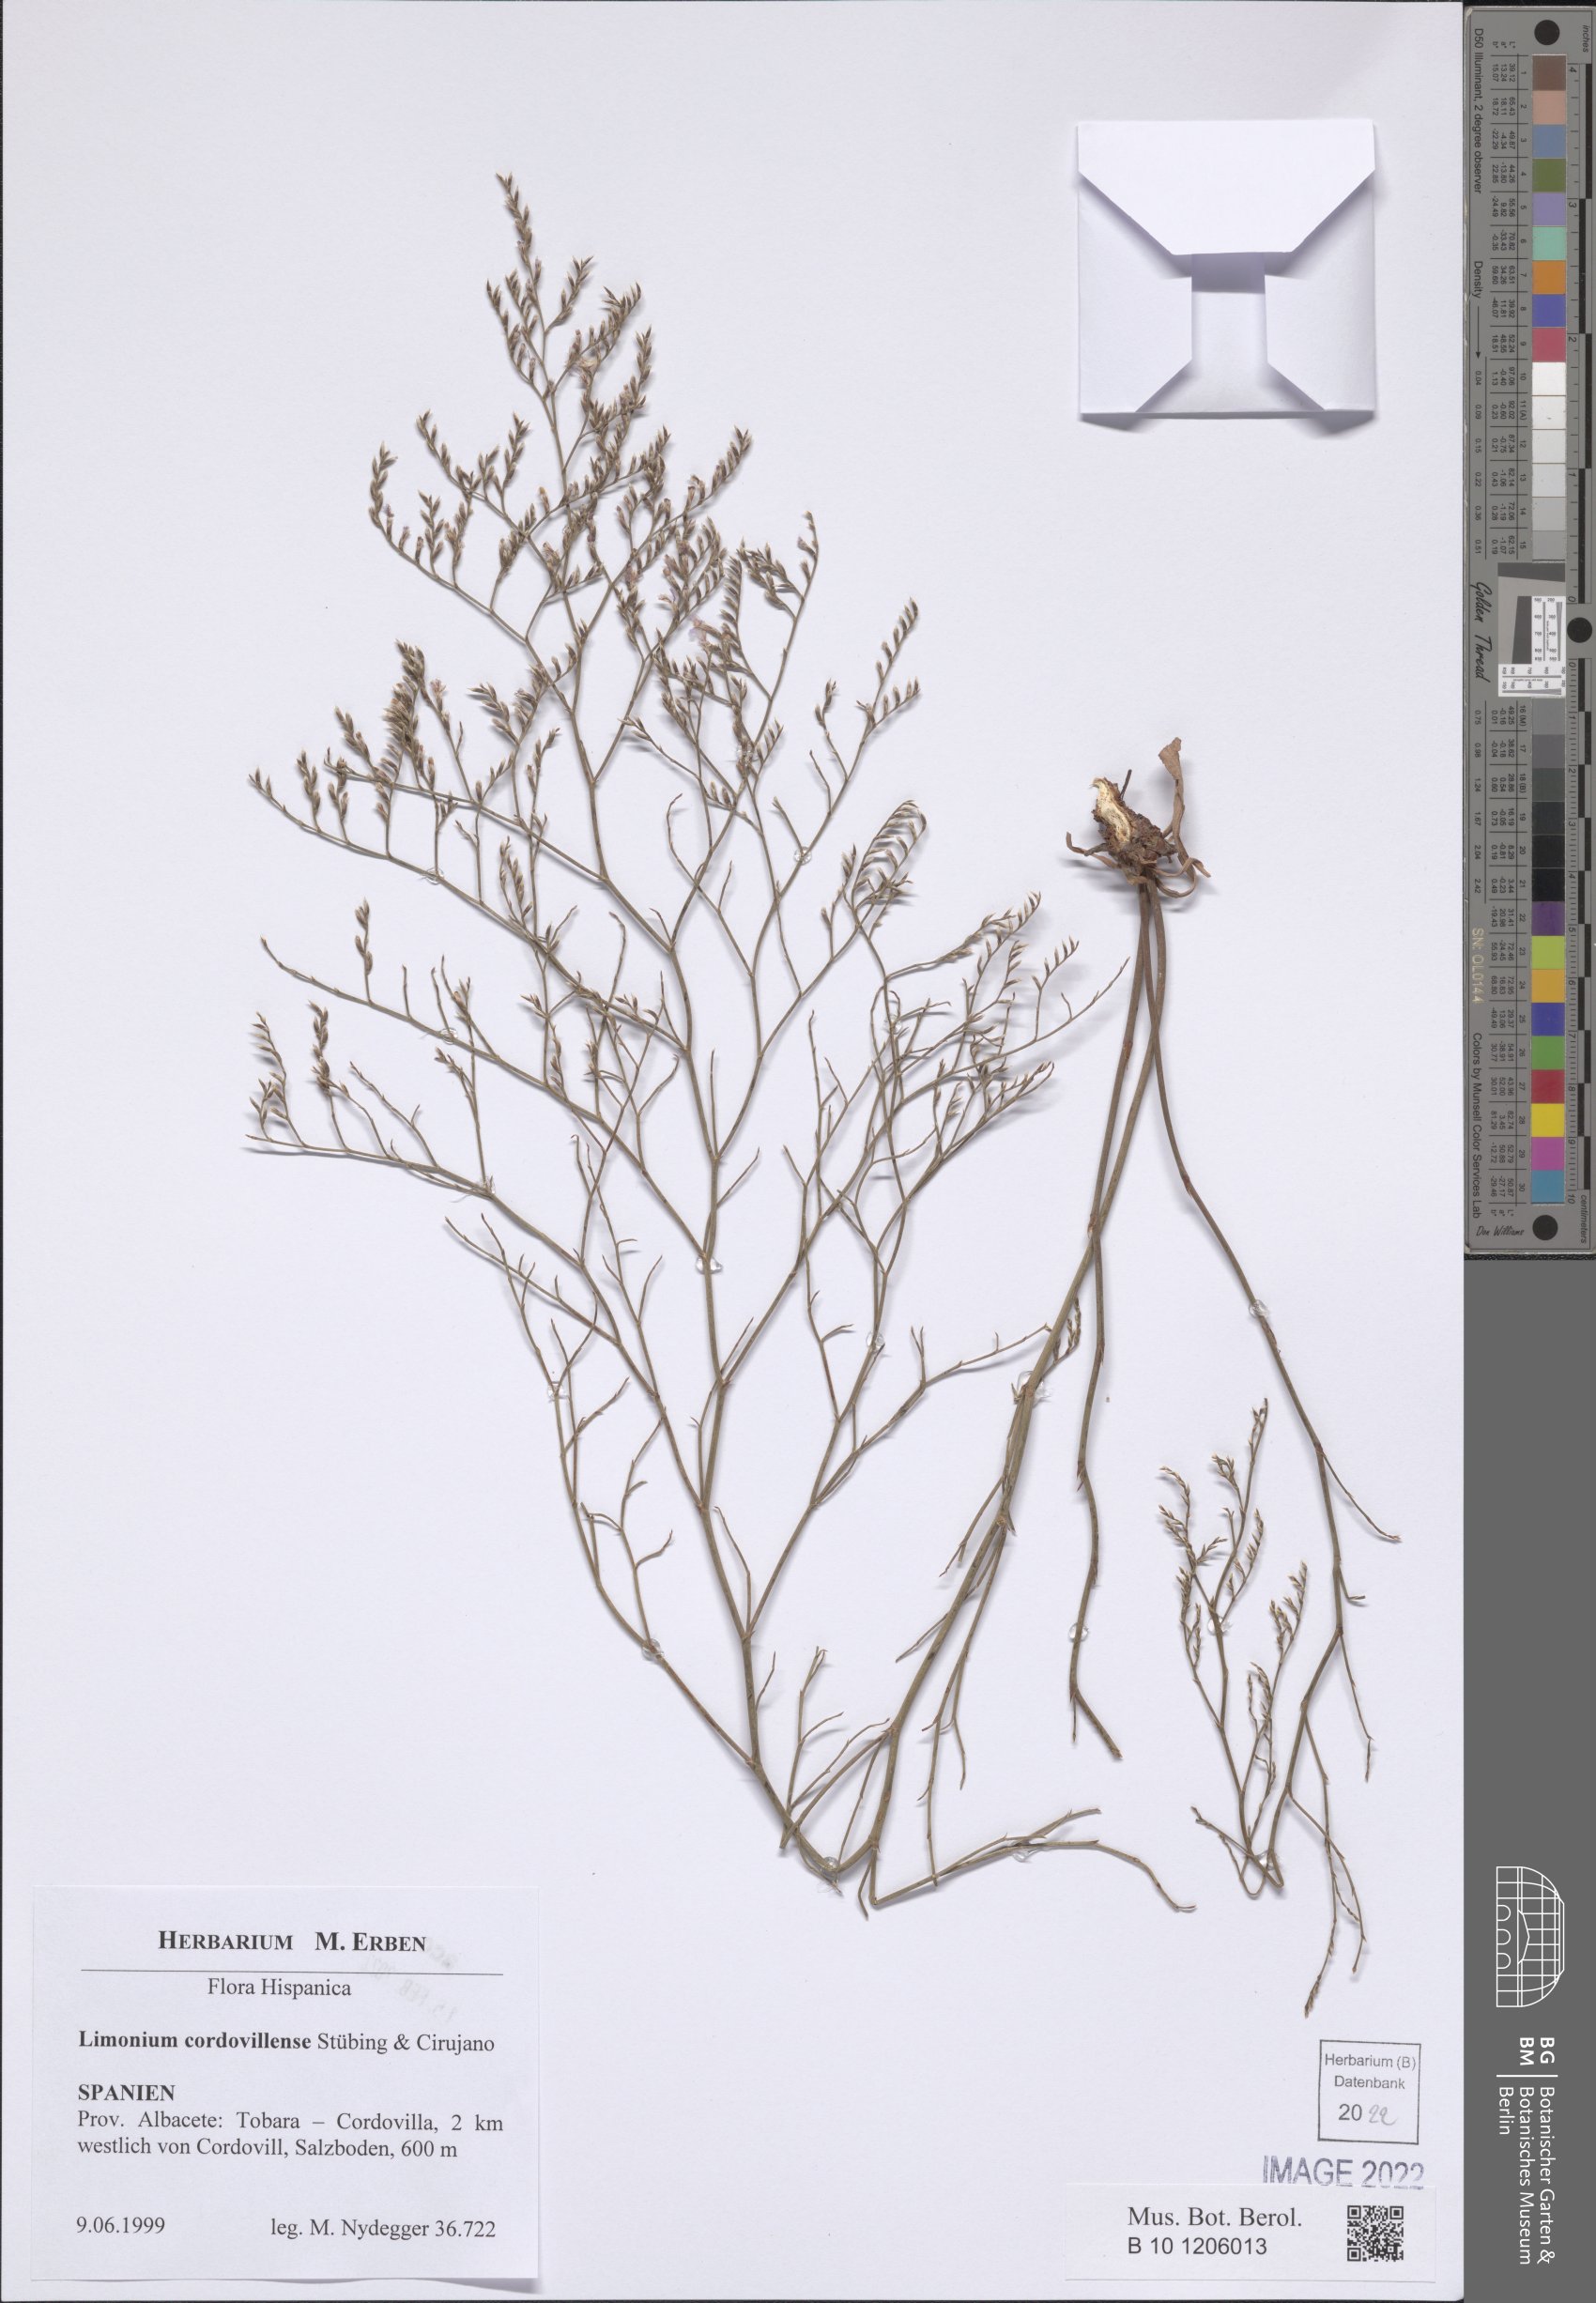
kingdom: Plantae
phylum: Tracheophyta
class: Magnoliopsida
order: Caryophyllales
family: Plumbaginaceae
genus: Limonium
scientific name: Limonium cordovillense
